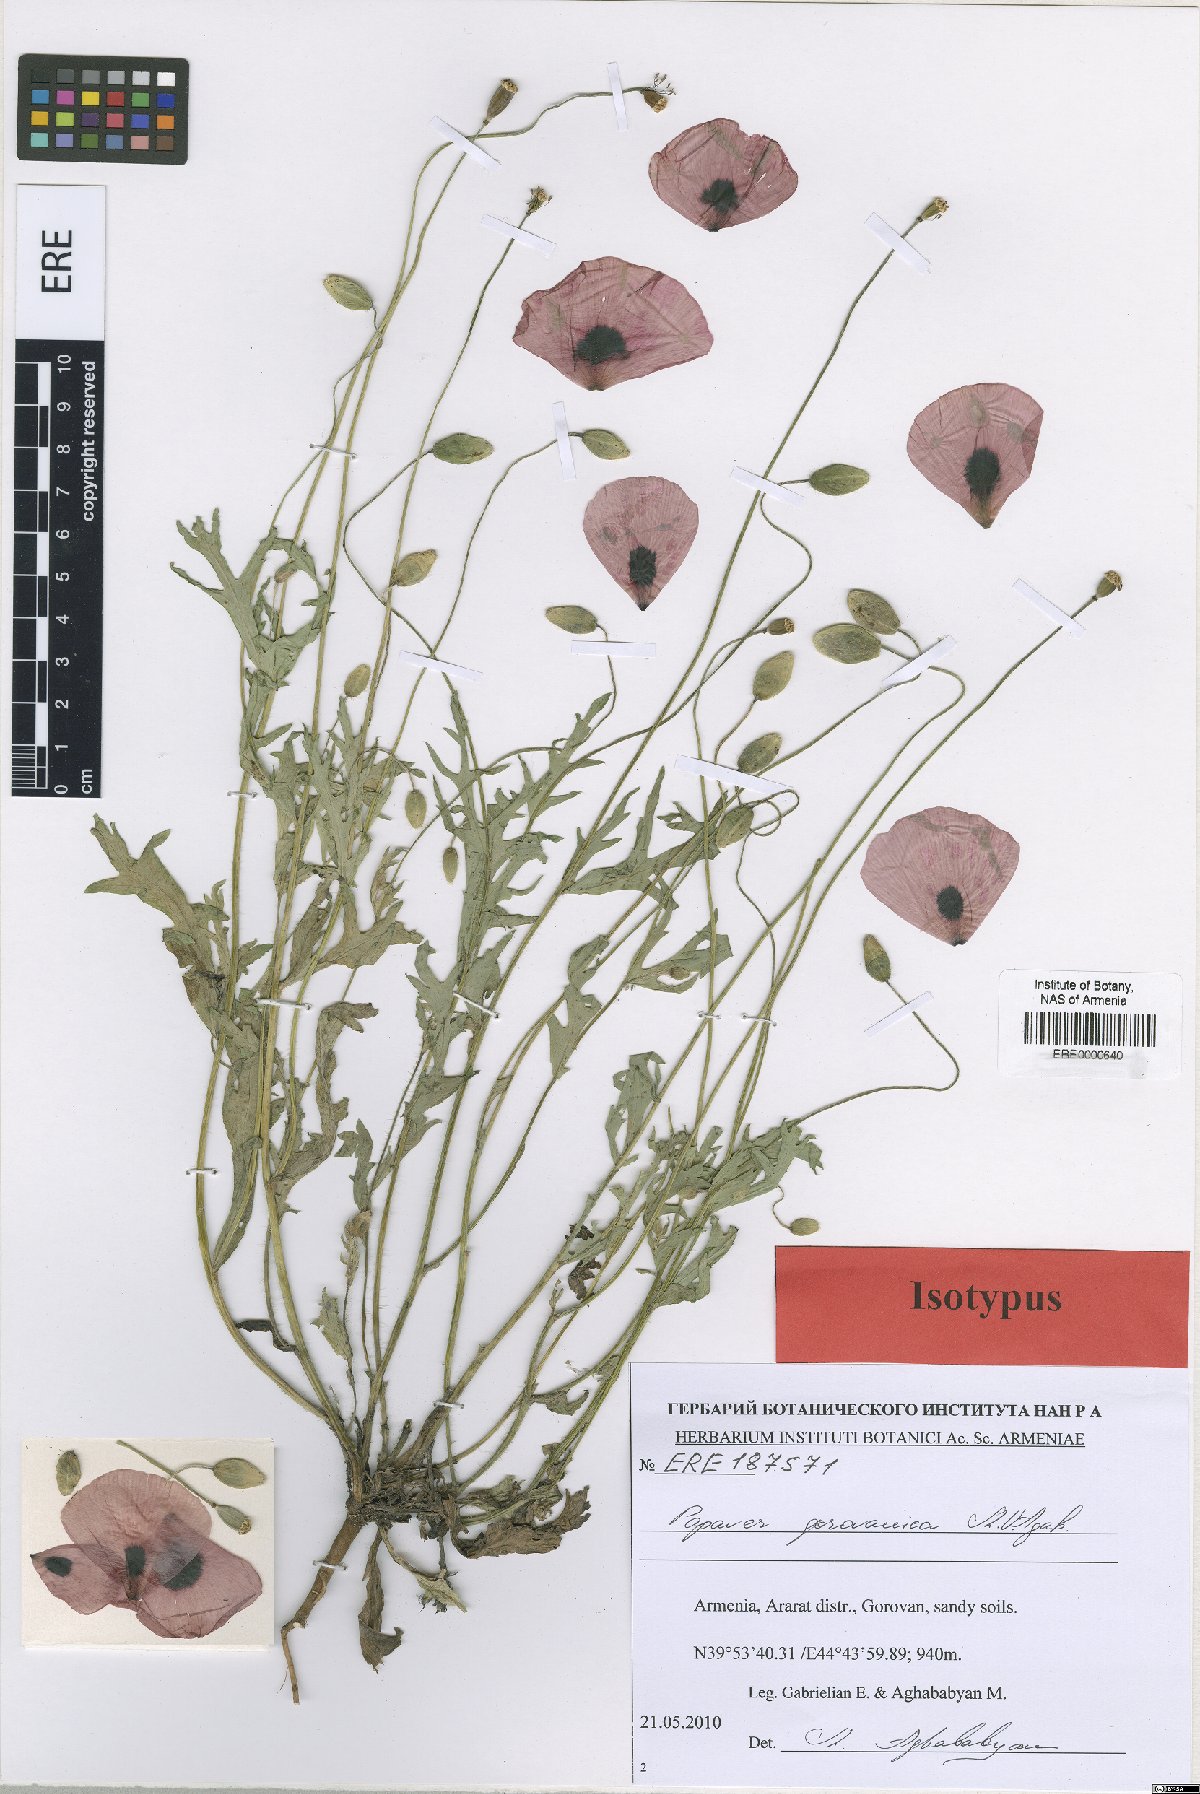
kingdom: Plantae
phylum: Tracheophyta
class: Magnoliopsida
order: Ranunculales
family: Papaveraceae
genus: Papaver
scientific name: Papaver gorovanicum
